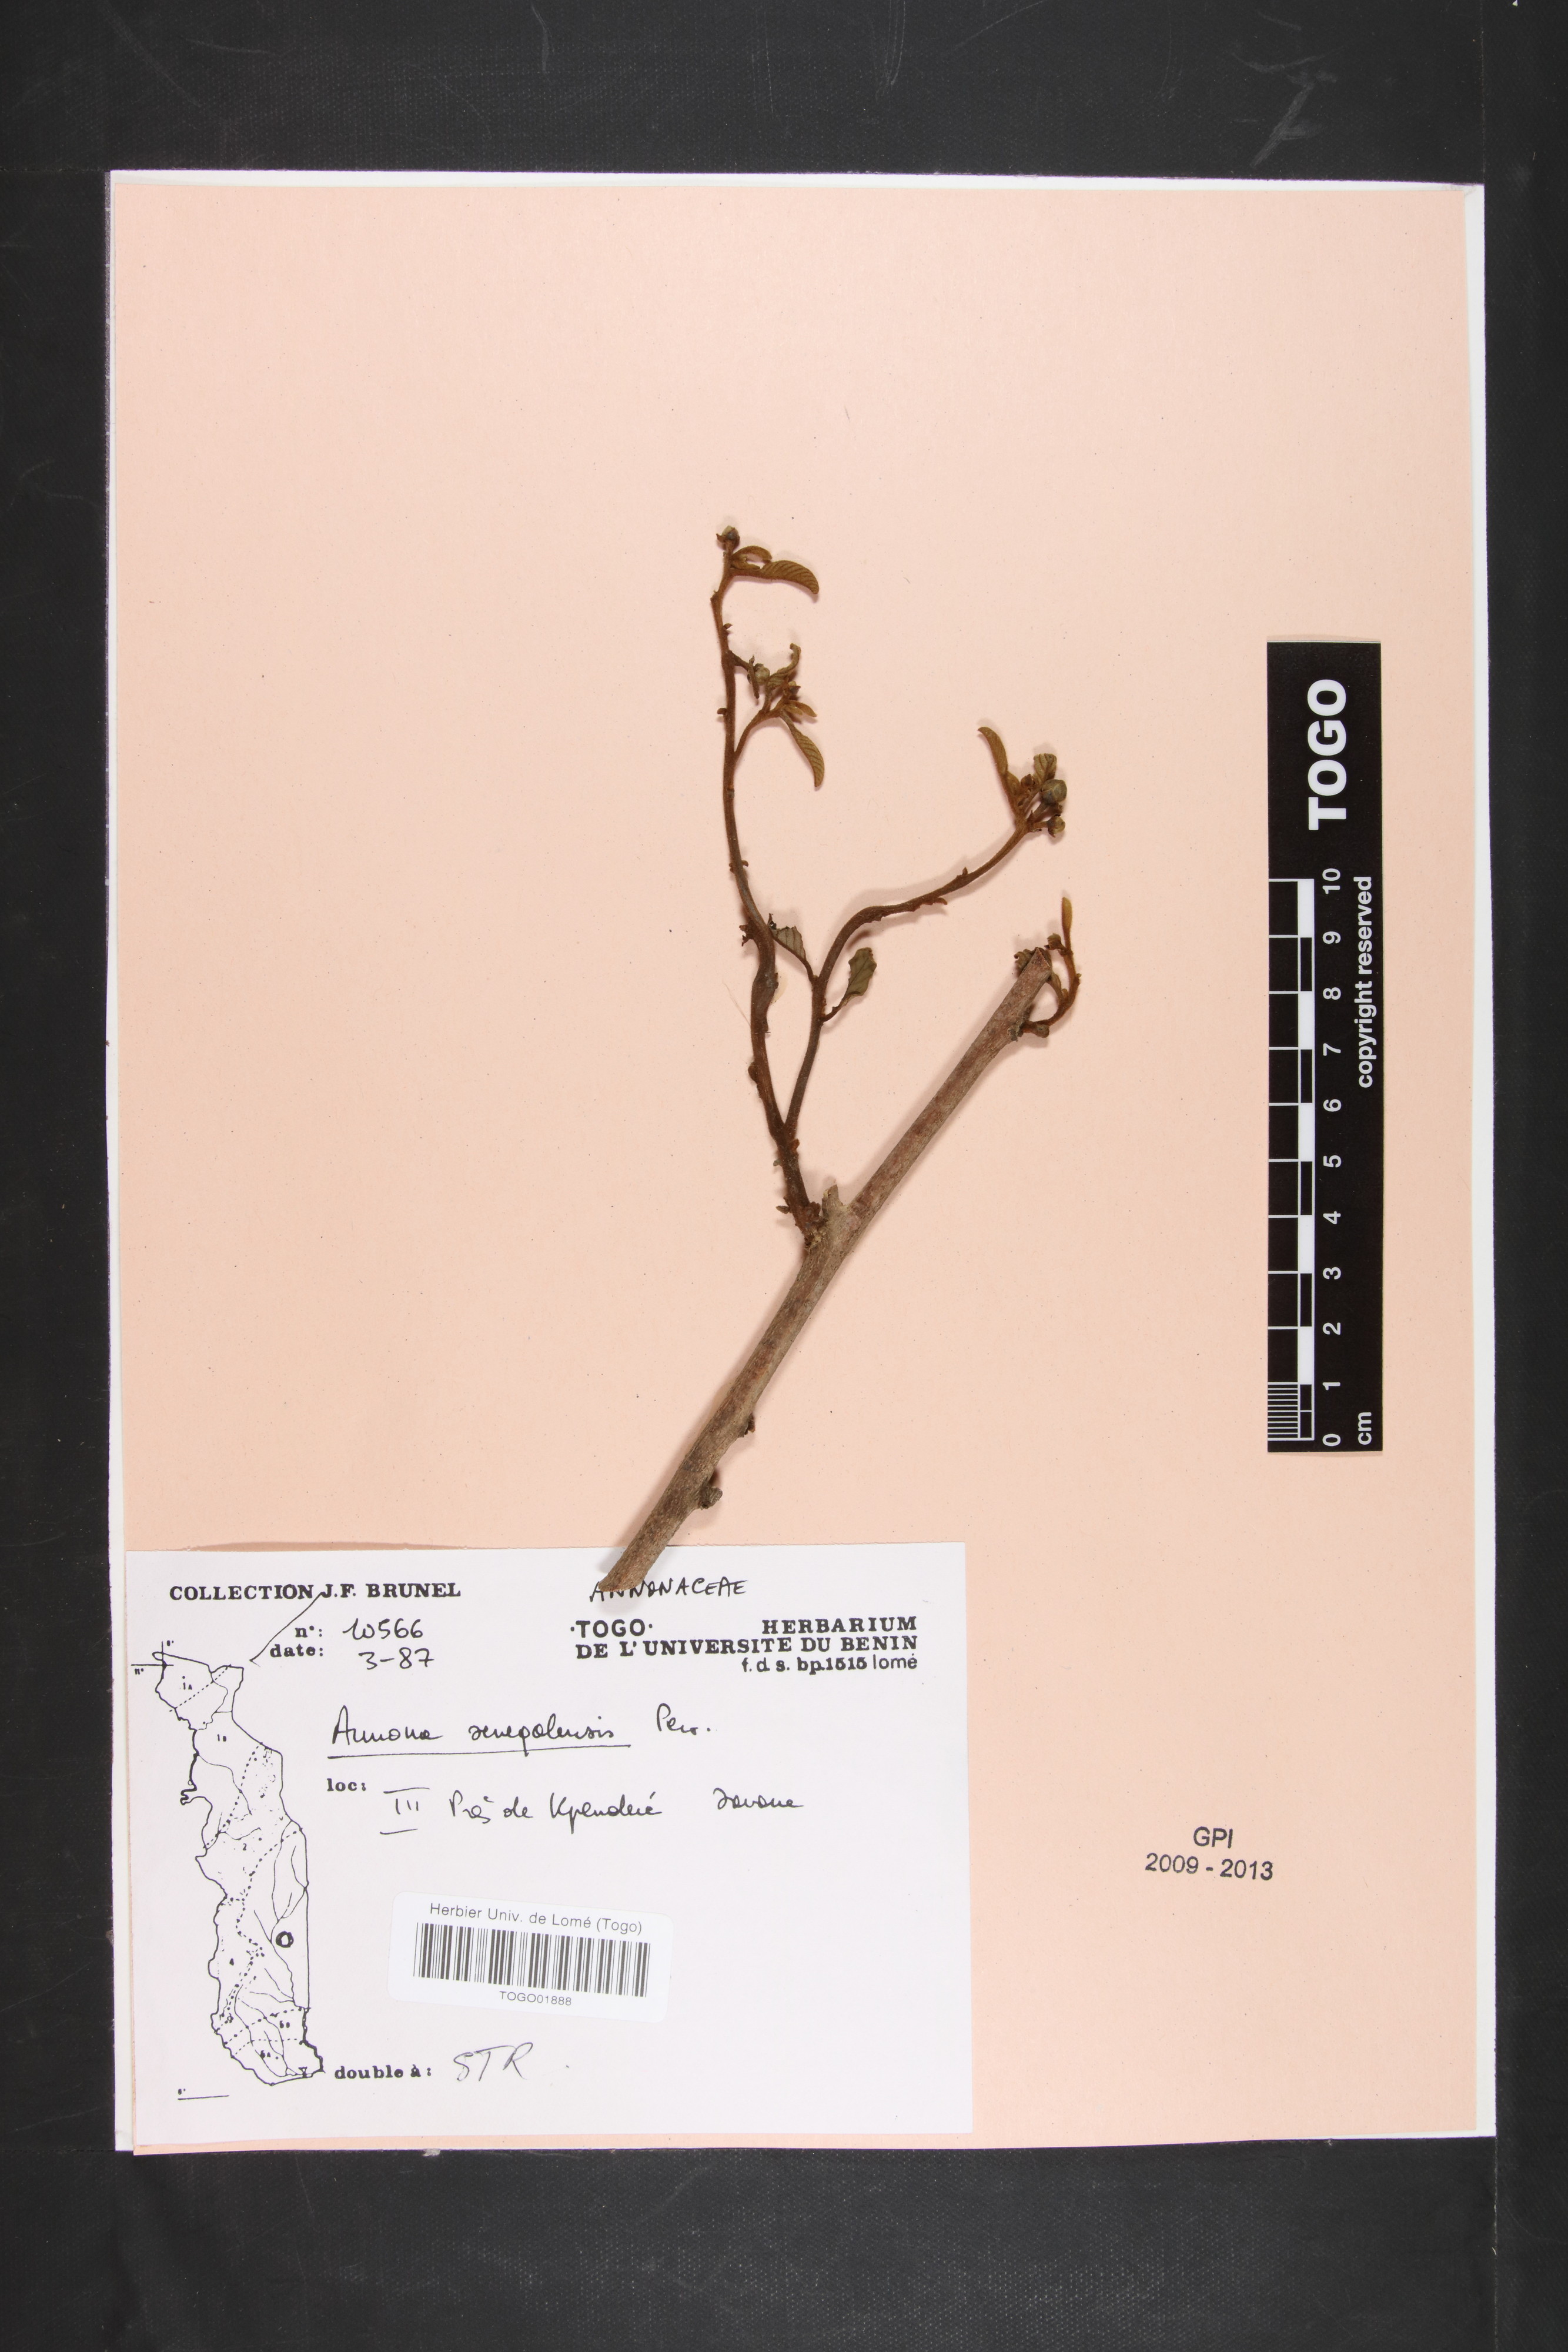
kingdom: Plantae
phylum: Tracheophyta
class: Magnoliopsida
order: Magnoliales
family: Annonaceae
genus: Annona
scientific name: Annona senegalensis
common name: Wild custard-apple
